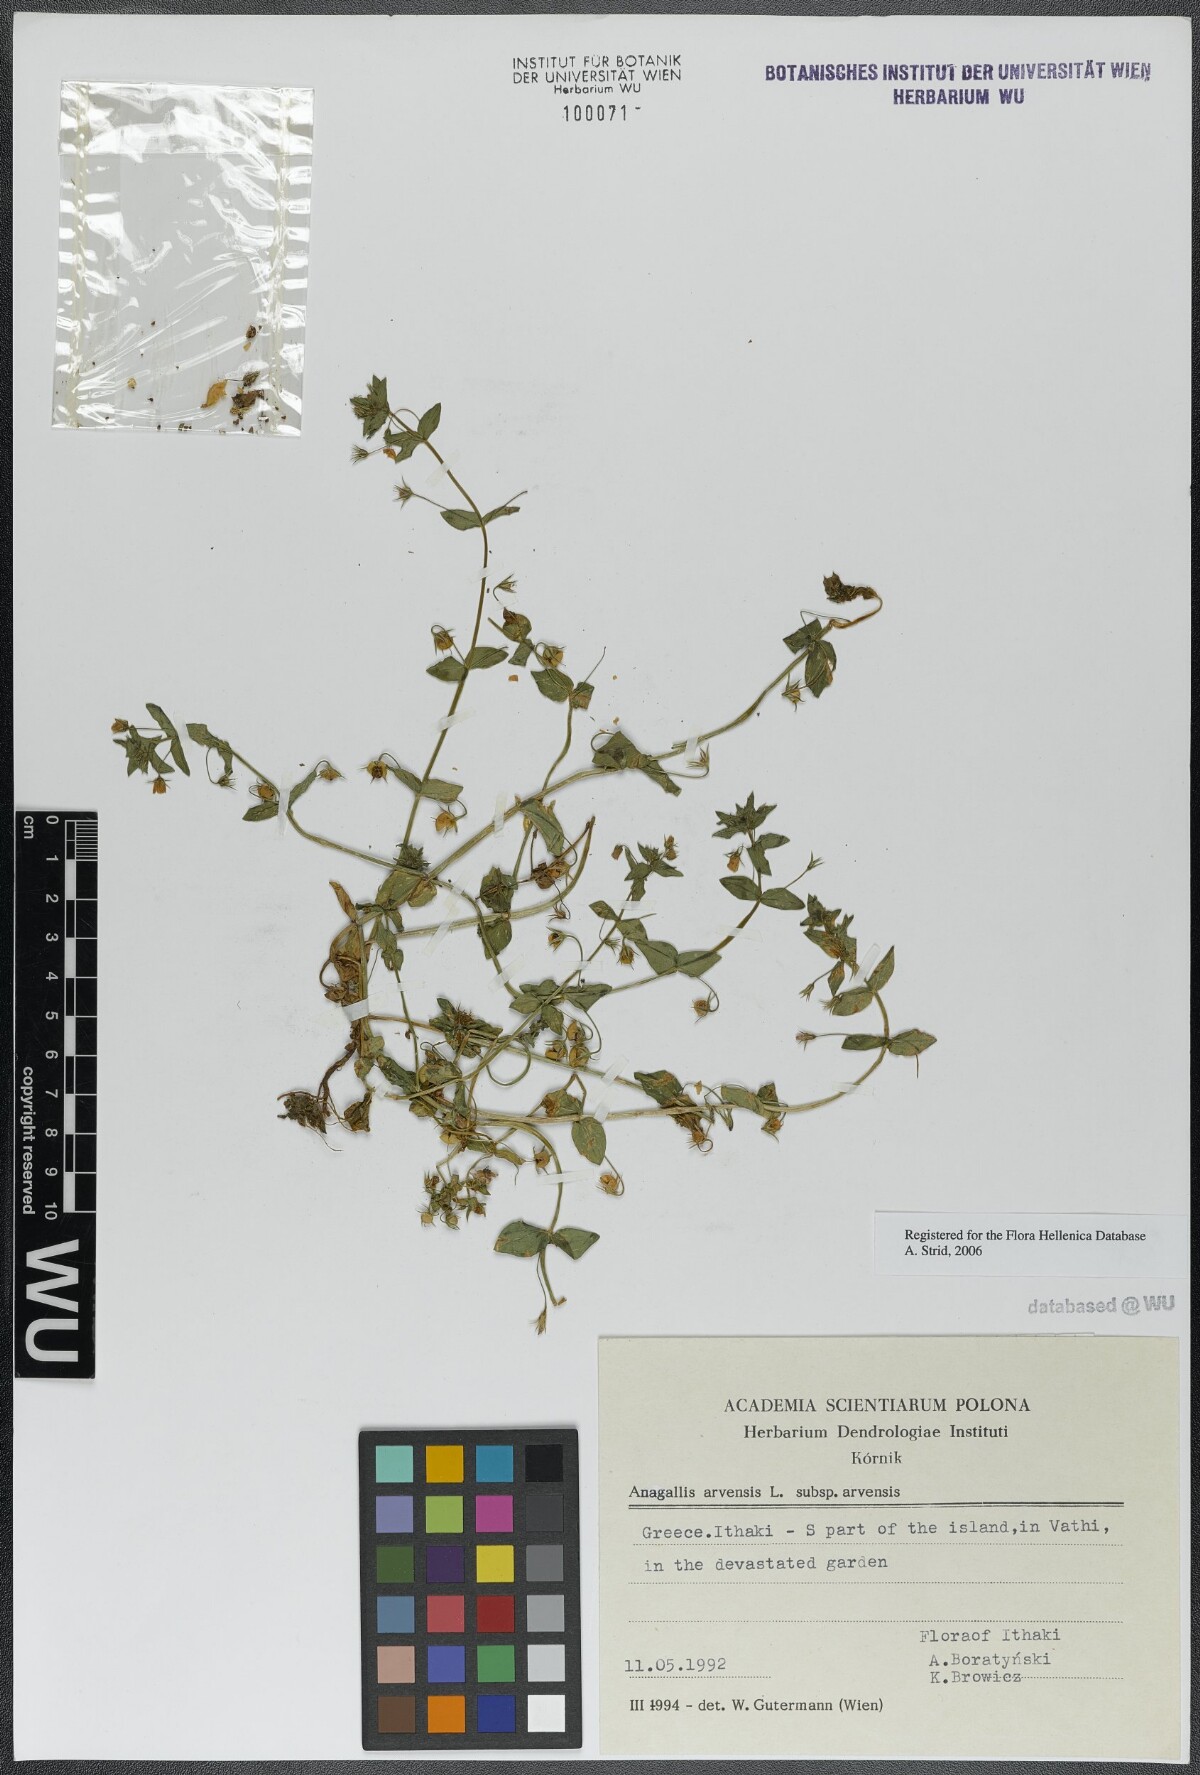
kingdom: Plantae
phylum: Tracheophyta
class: Magnoliopsida
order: Ericales
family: Primulaceae
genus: Lysimachia
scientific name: Lysimachia arvensis
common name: Scarlet pimpernel
